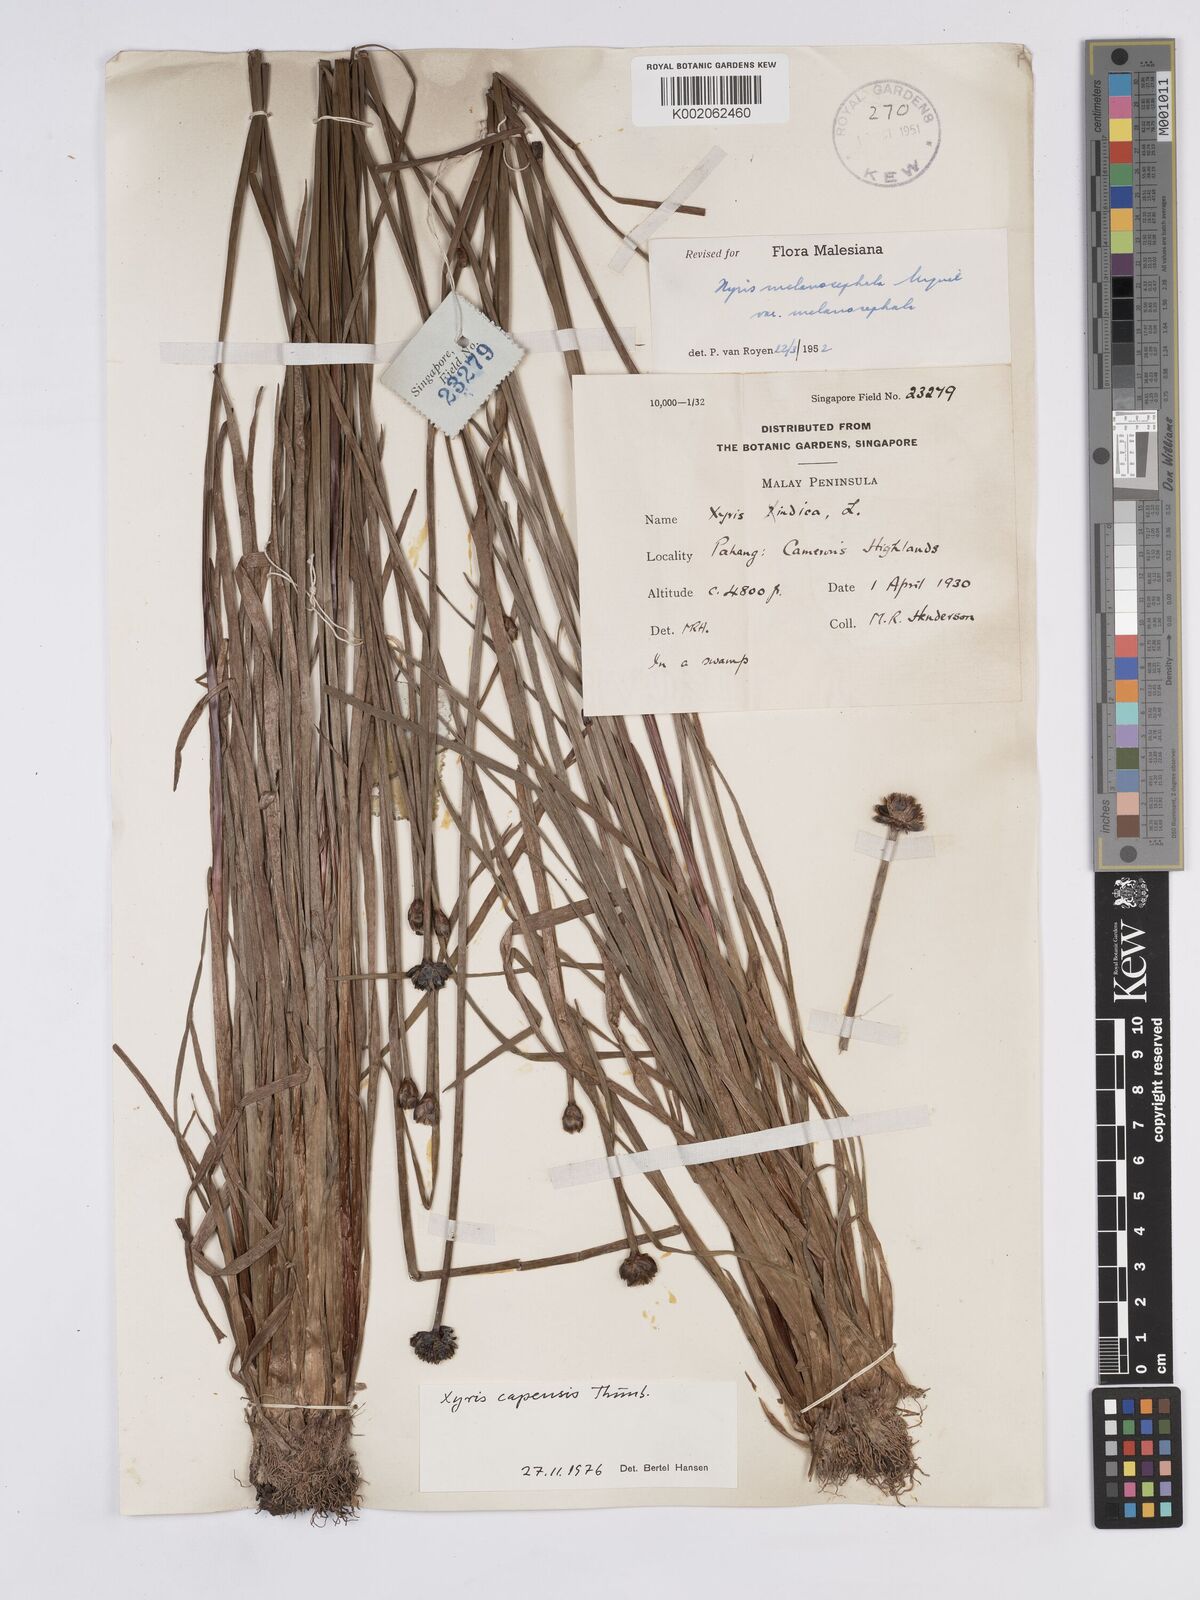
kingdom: Plantae
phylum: Tracheophyta
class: Liliopsida
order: Poales
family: Xyridaceae
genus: Xyris
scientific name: Xyris capensis
